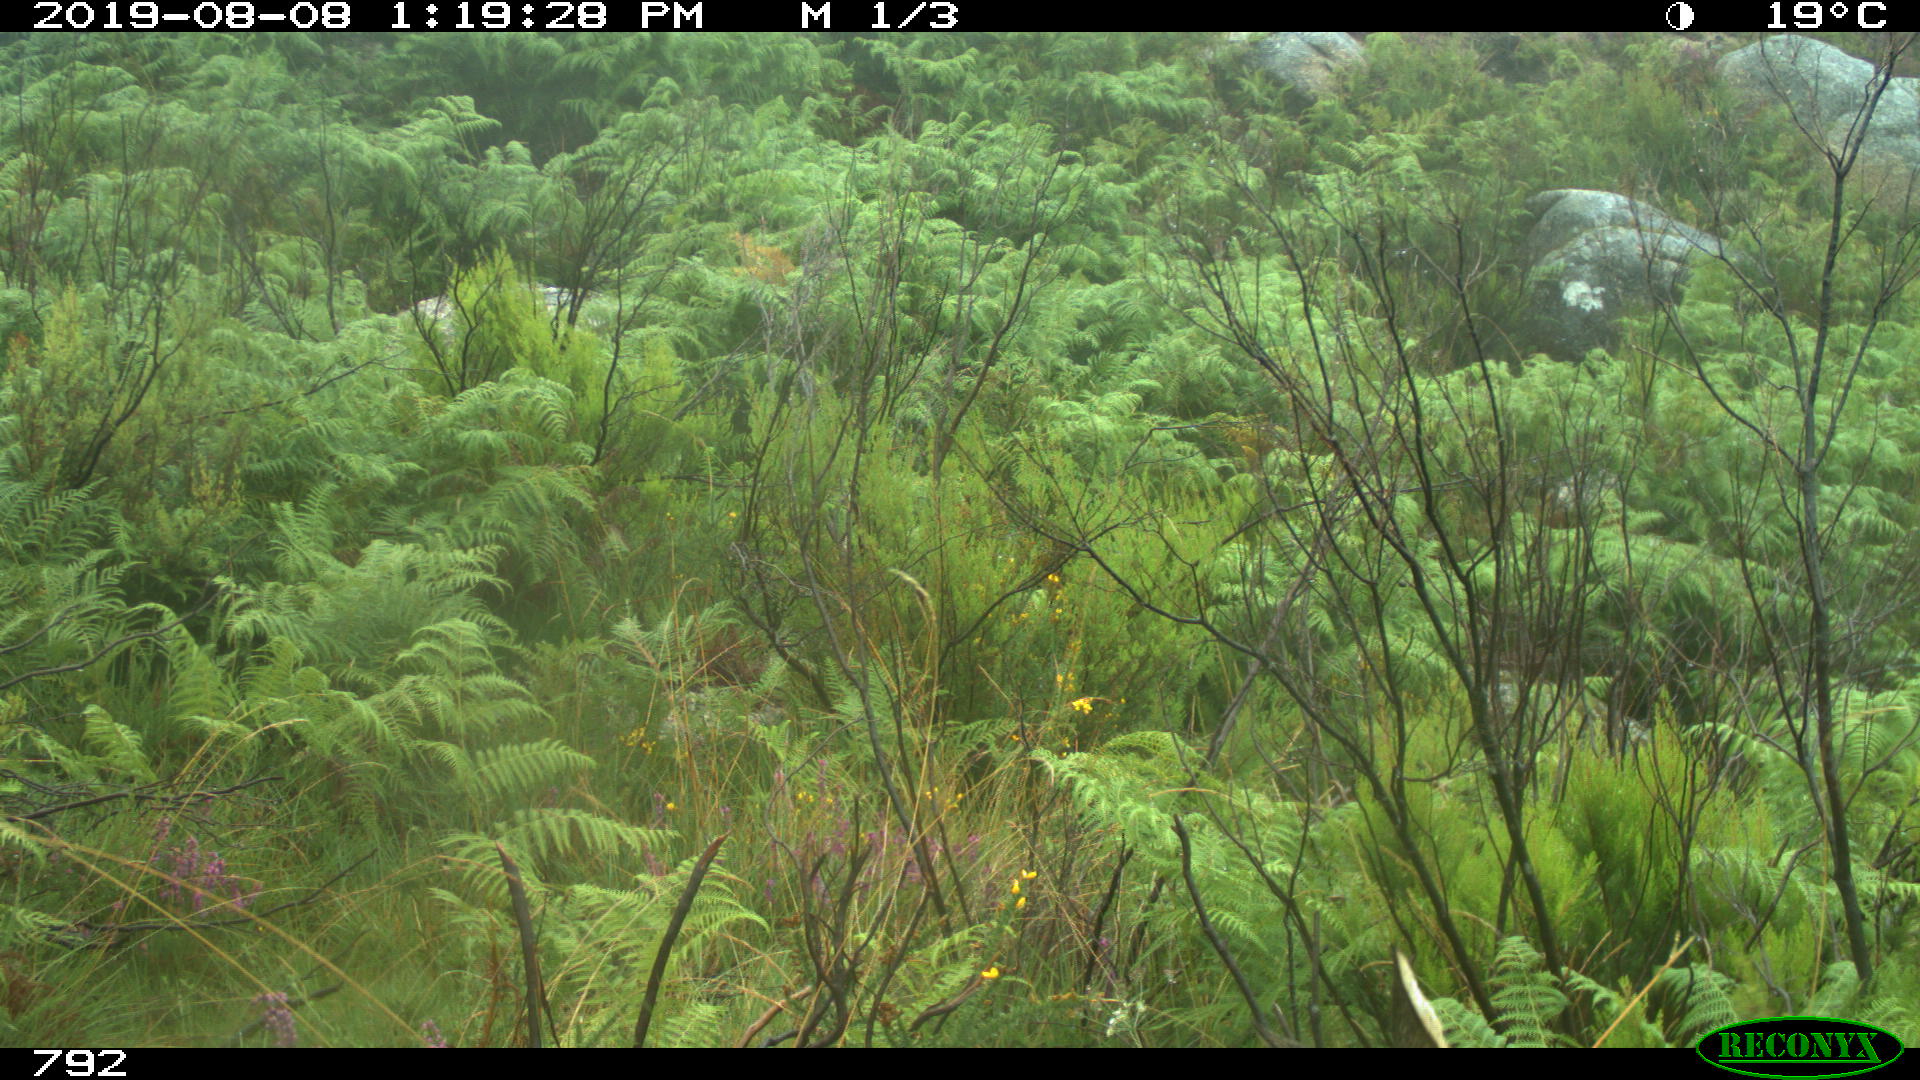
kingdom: Animalia
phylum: Chordata
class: Mammalia
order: Artiodactyla
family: Cervidae
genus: Capreolus
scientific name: Capreolus capreolus
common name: Western roe deer
